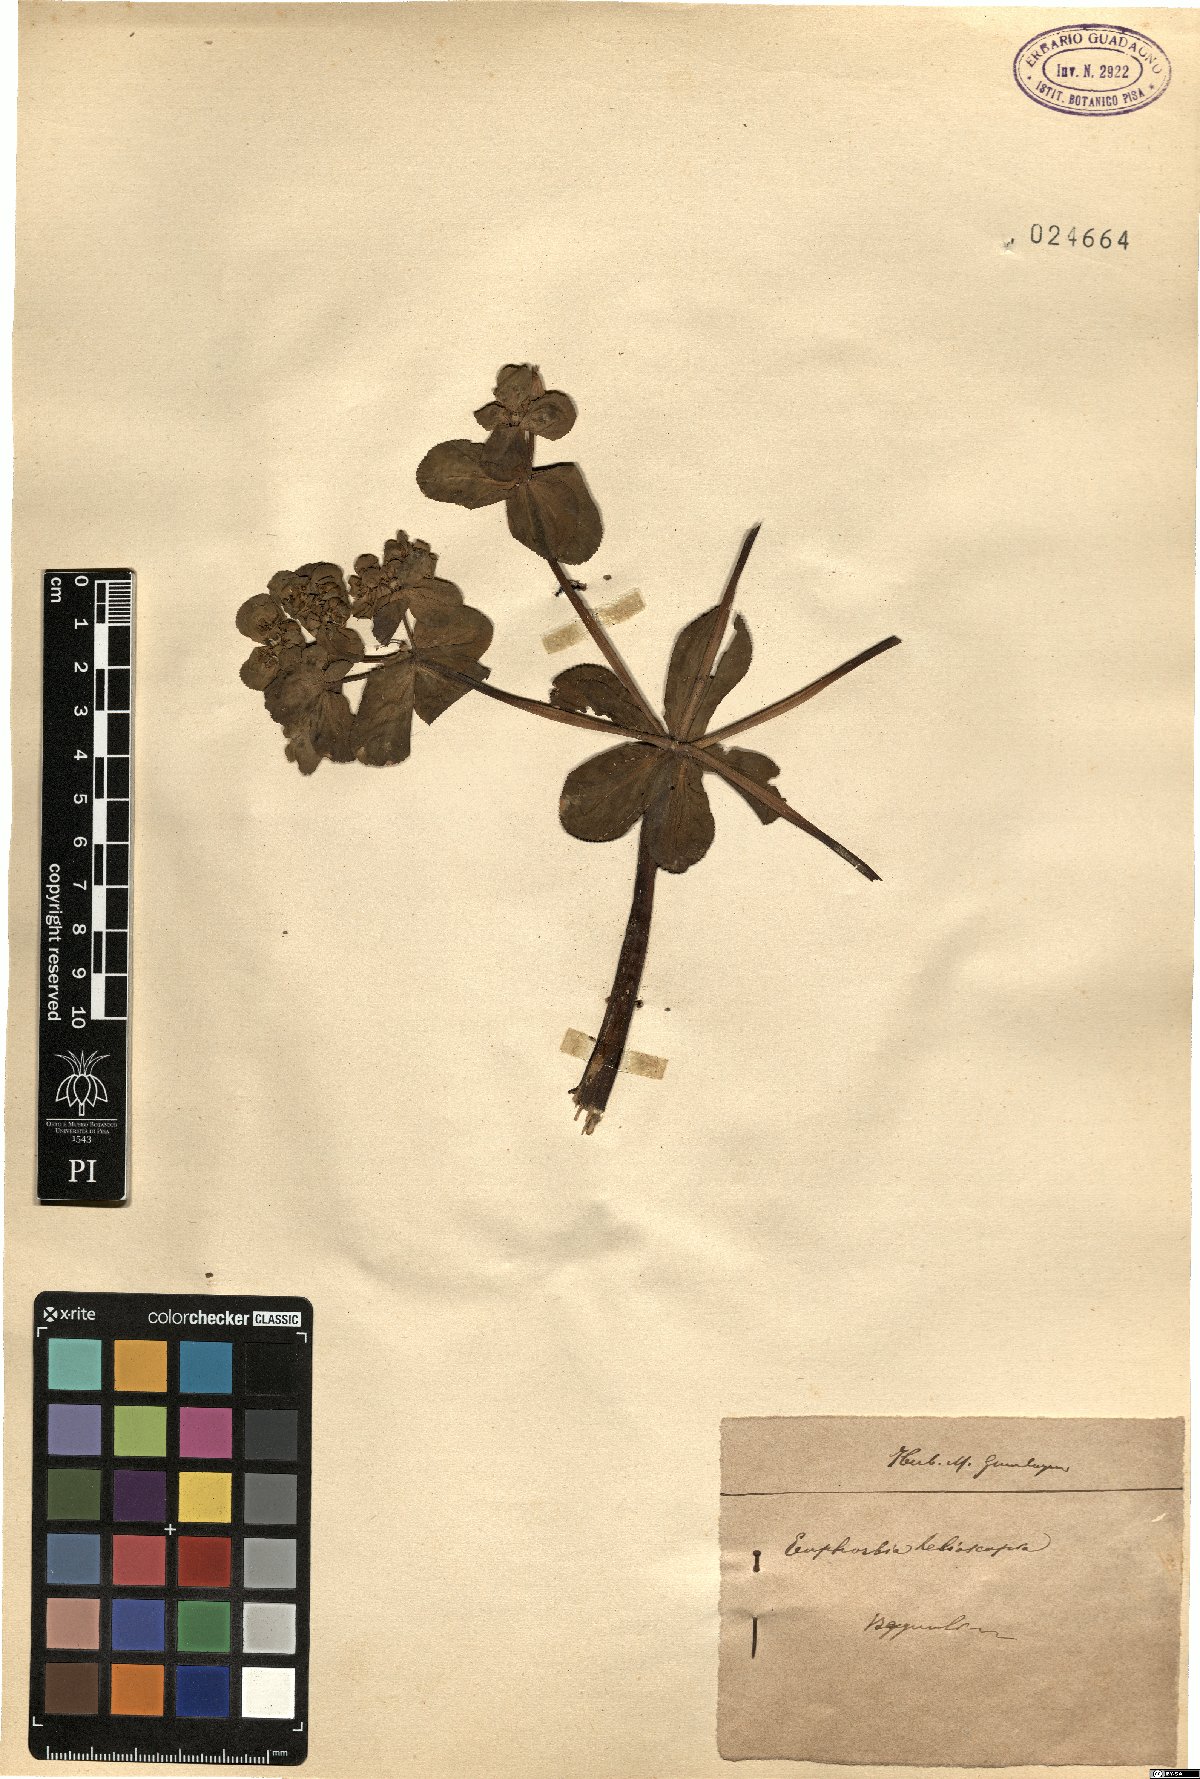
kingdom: Plantae
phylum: Tracheophyta
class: Magnoliopsida
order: Malpighiales
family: Euphorbiaceae
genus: Euphorbia
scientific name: Euphorbia helioscopia
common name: Sun spurge
